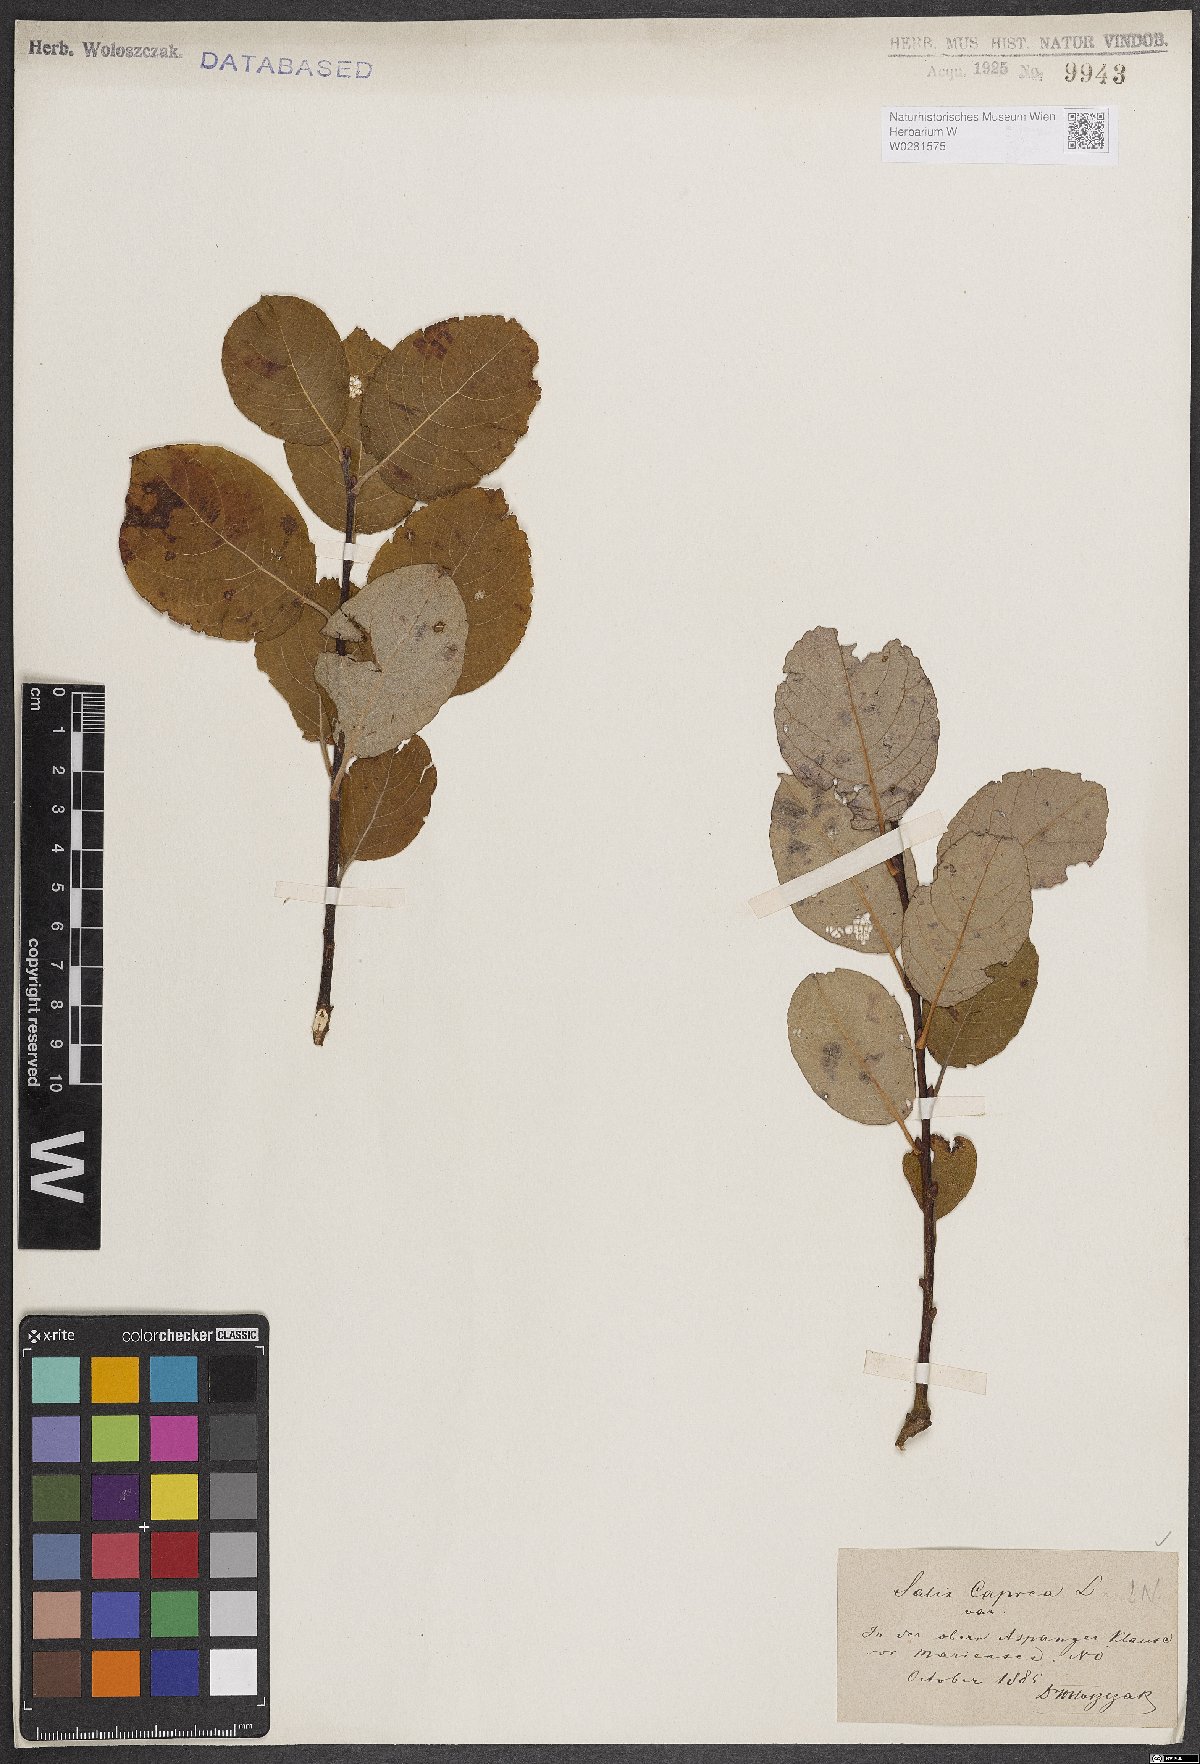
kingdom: Plantae
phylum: Tracheophyta
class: Magnoliopsida
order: Malpighiales
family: Salicaceae
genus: Salix
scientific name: Salix caprea
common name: Goat willow
